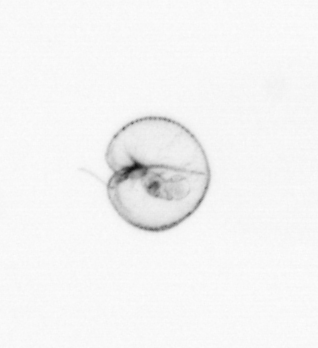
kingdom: Chromista
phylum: Myzozoa
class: Dinophyceae
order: Noctilucales
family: Noctilucaceae
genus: Noctiluca
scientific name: Noctiluca scintillans
